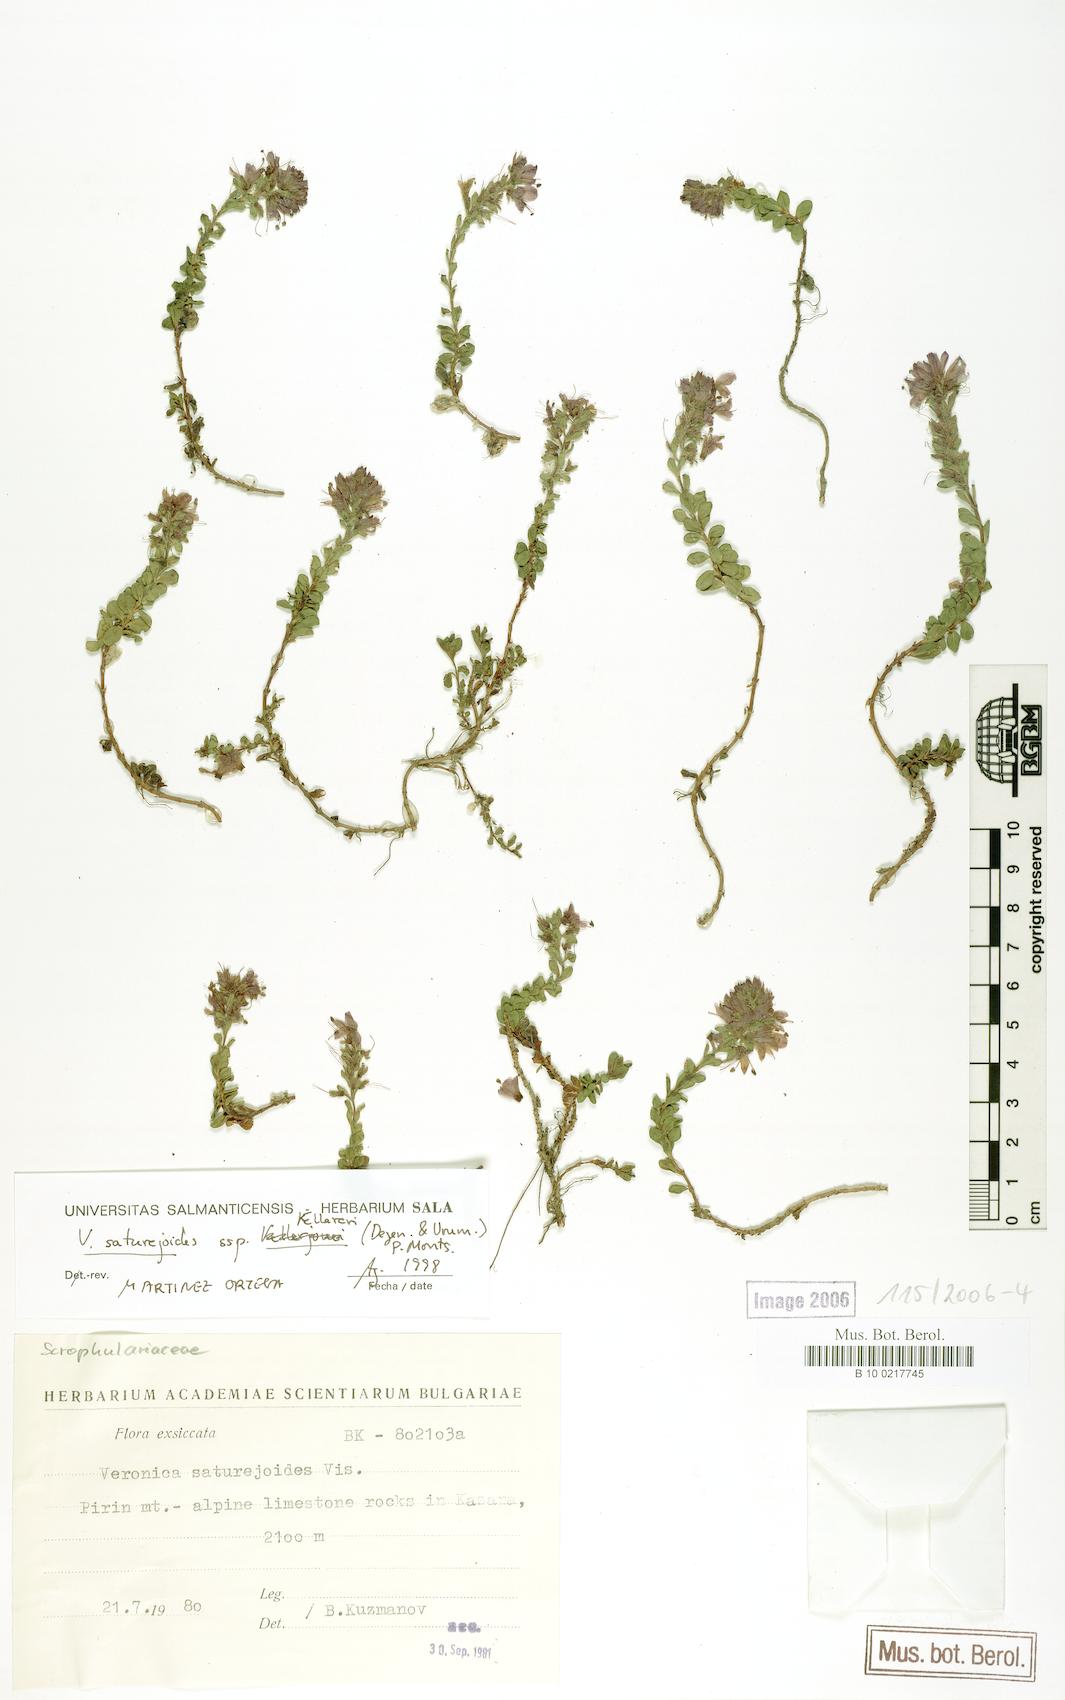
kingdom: Plantae
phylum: Tracheophyta
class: Magnoliopsida
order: Lamiales
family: Plantaginaceae
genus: Veronica
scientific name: Veronica saturejoides
